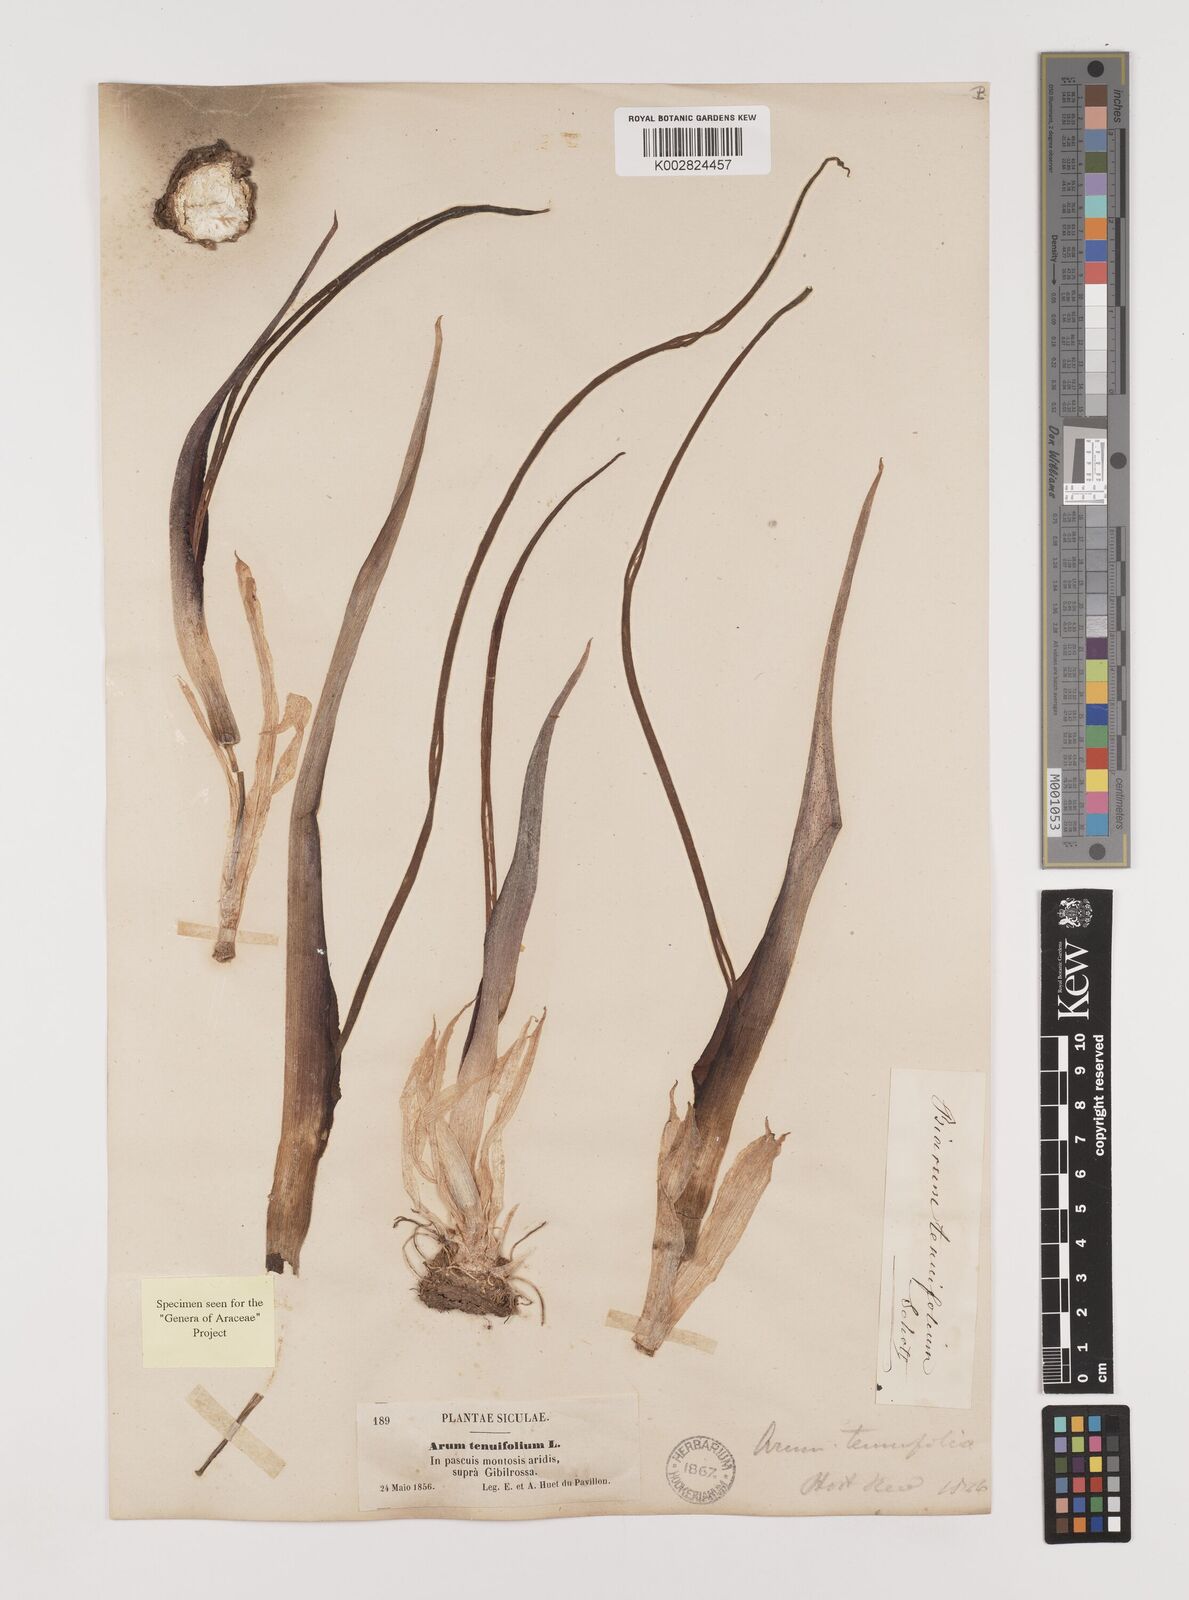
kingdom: Plantae
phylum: Tracheophyta
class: Liliopsida
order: Alismatales
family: Araceae
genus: Biarum
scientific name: Biarum tenuifolium
